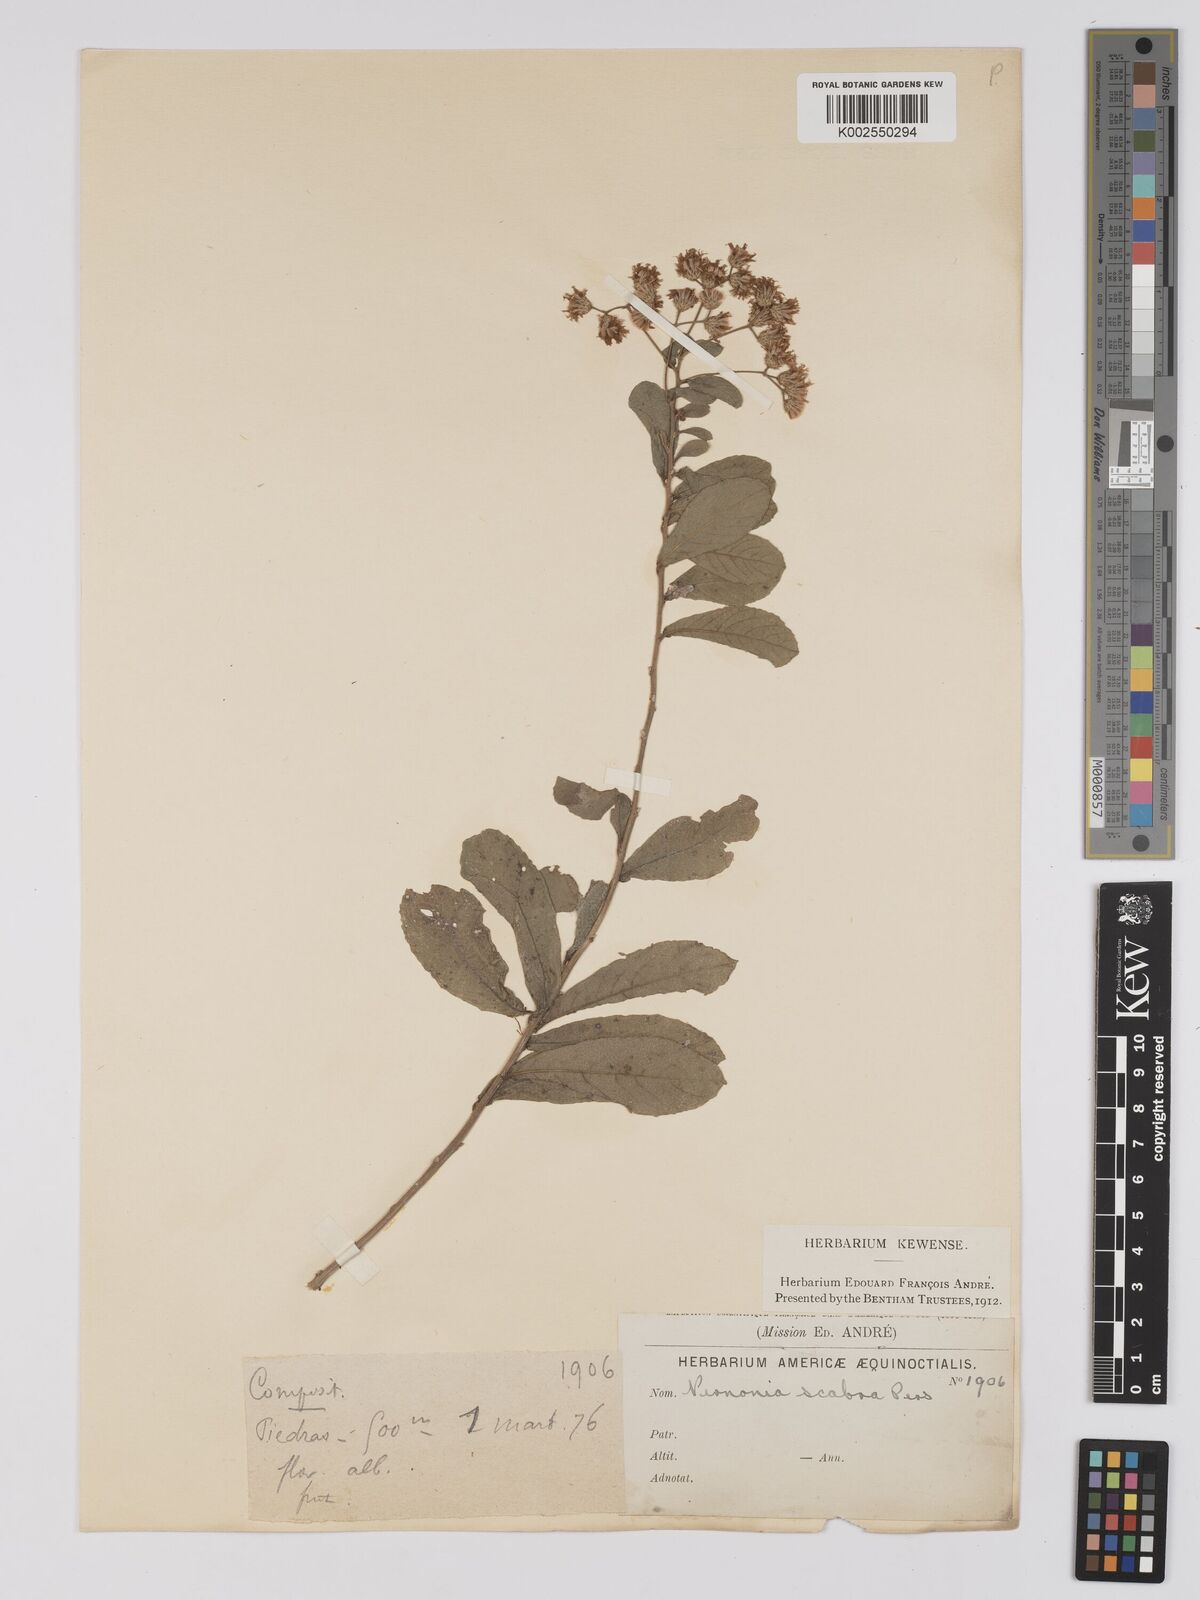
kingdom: Plantae
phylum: Tracheophyta
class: Magnoliopsida
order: Asterales
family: Asteraceae
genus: Vernonanthura
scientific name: Vernonanthura brasiliana
